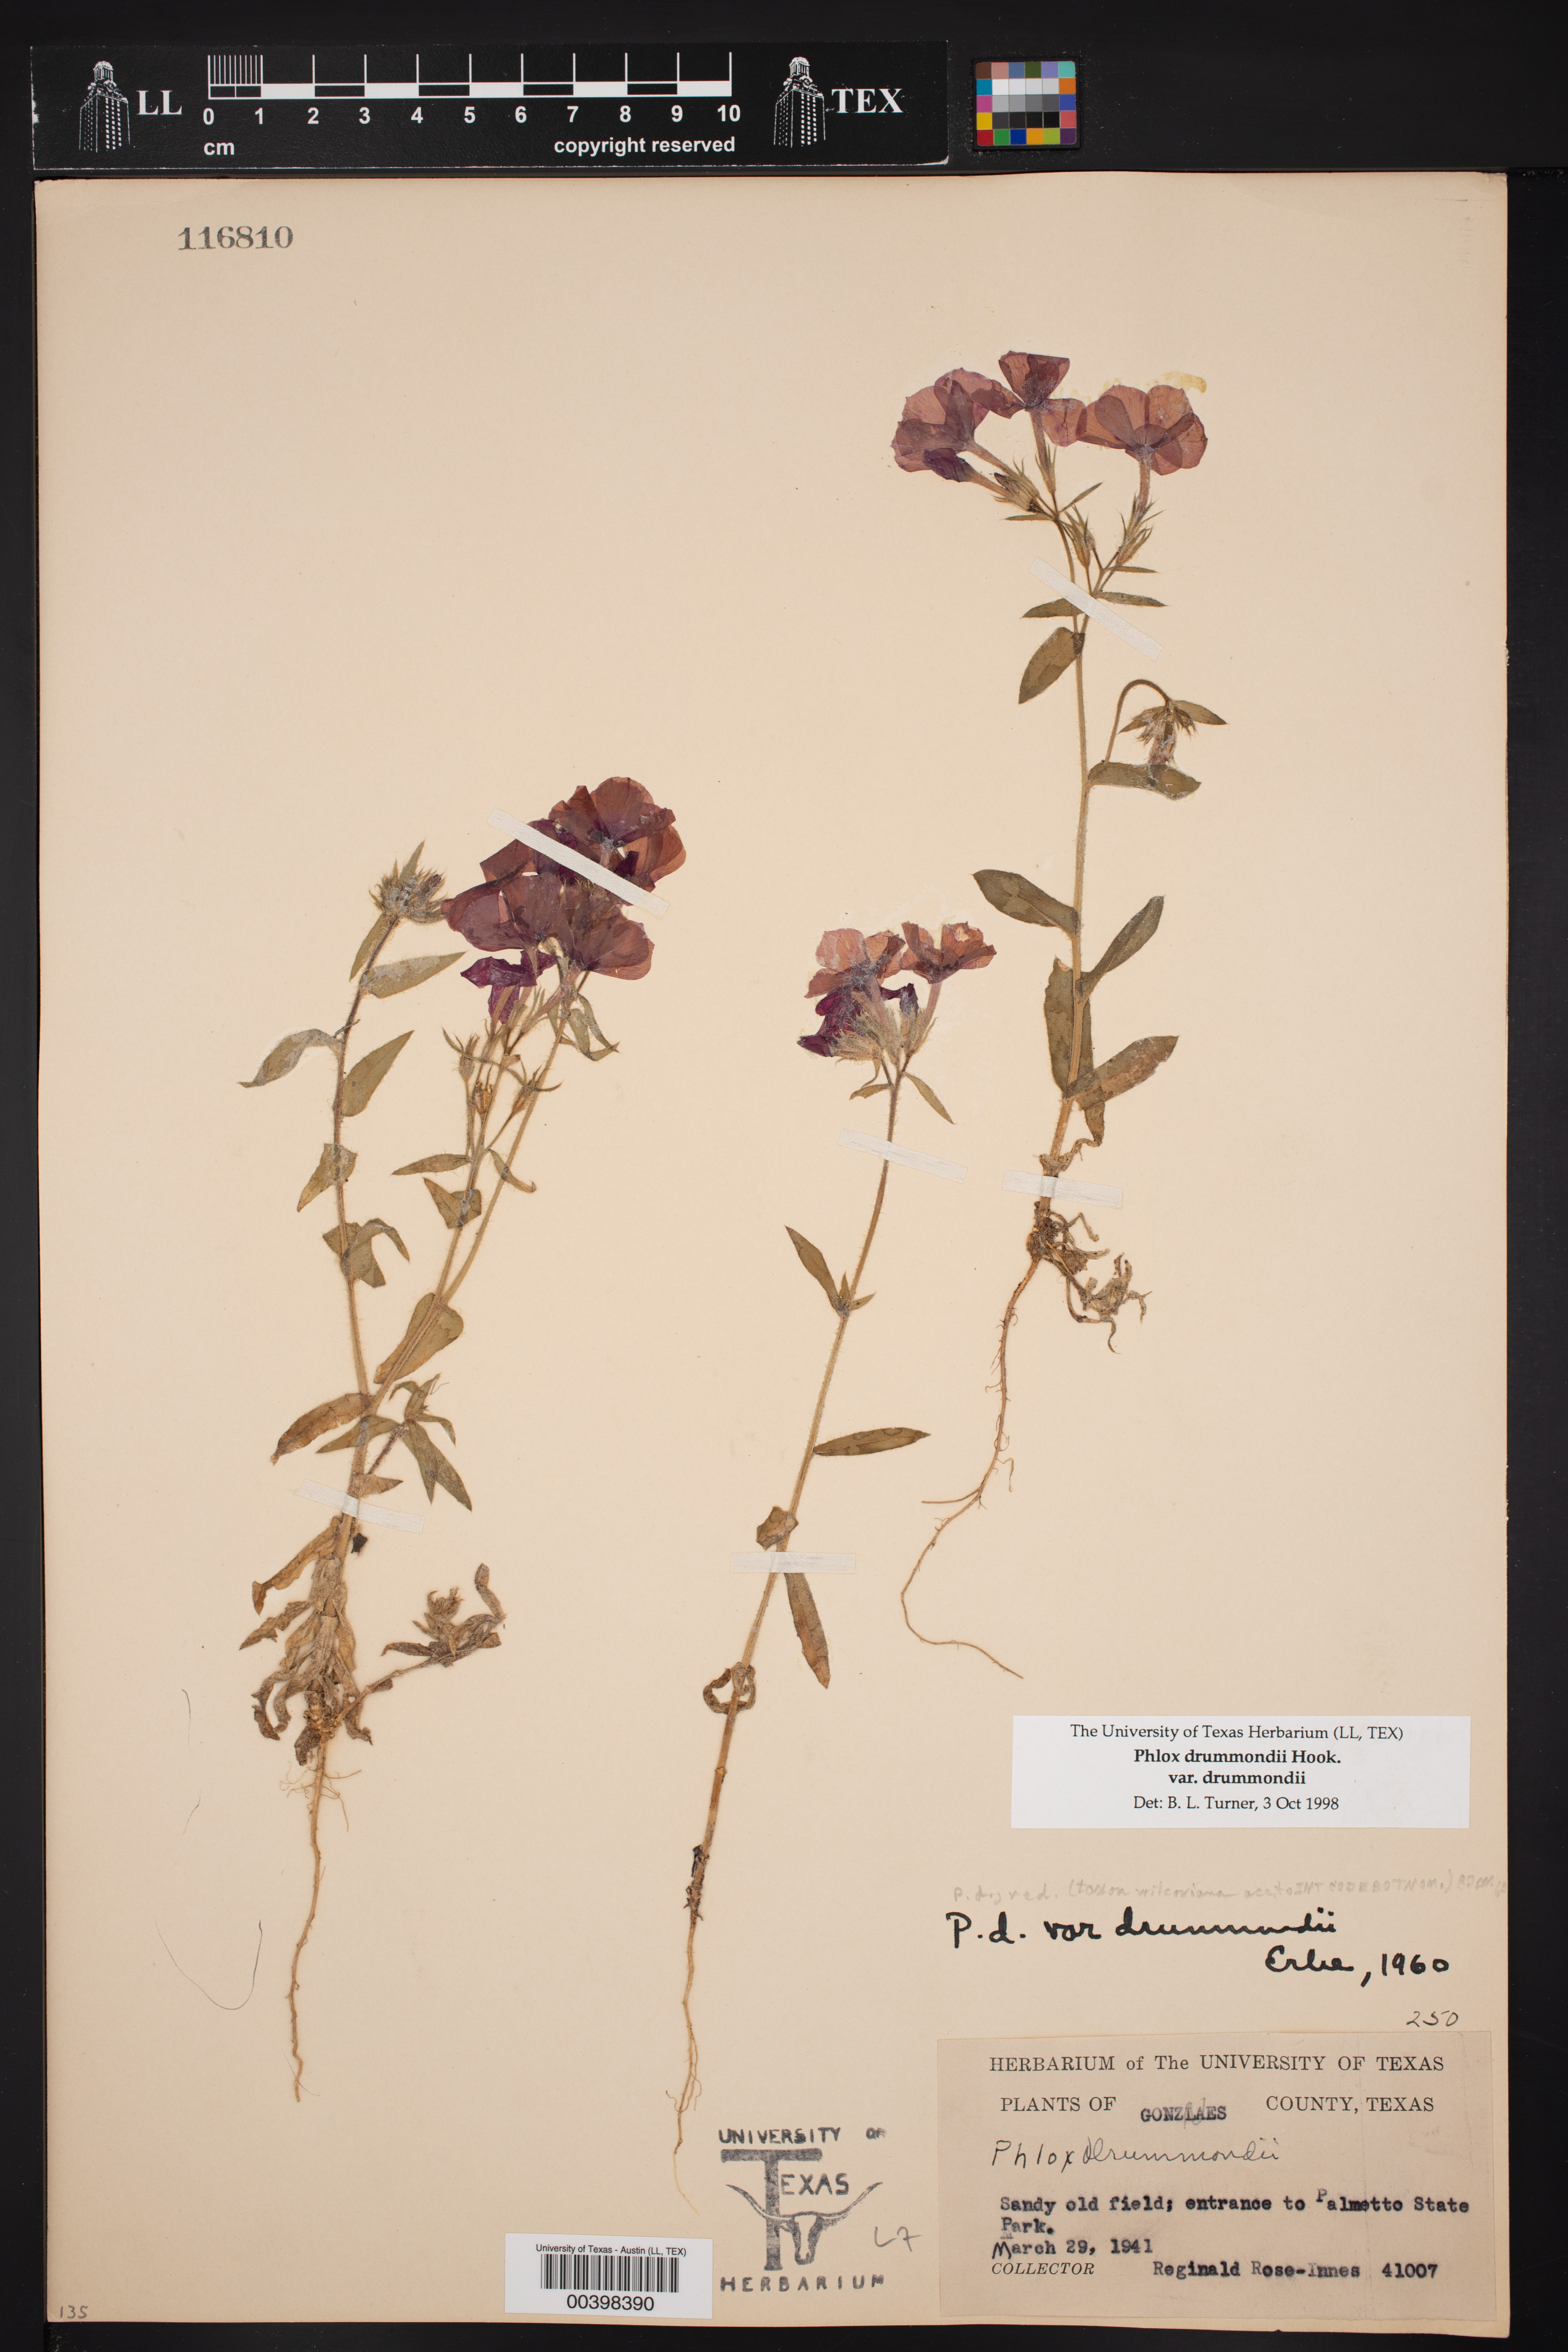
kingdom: Plantae
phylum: Tracheophyta
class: Magnoliopsida
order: Ericales
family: Polemoniaceae
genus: Phlox
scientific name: Phlox drummondii
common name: Drummond's phlox
